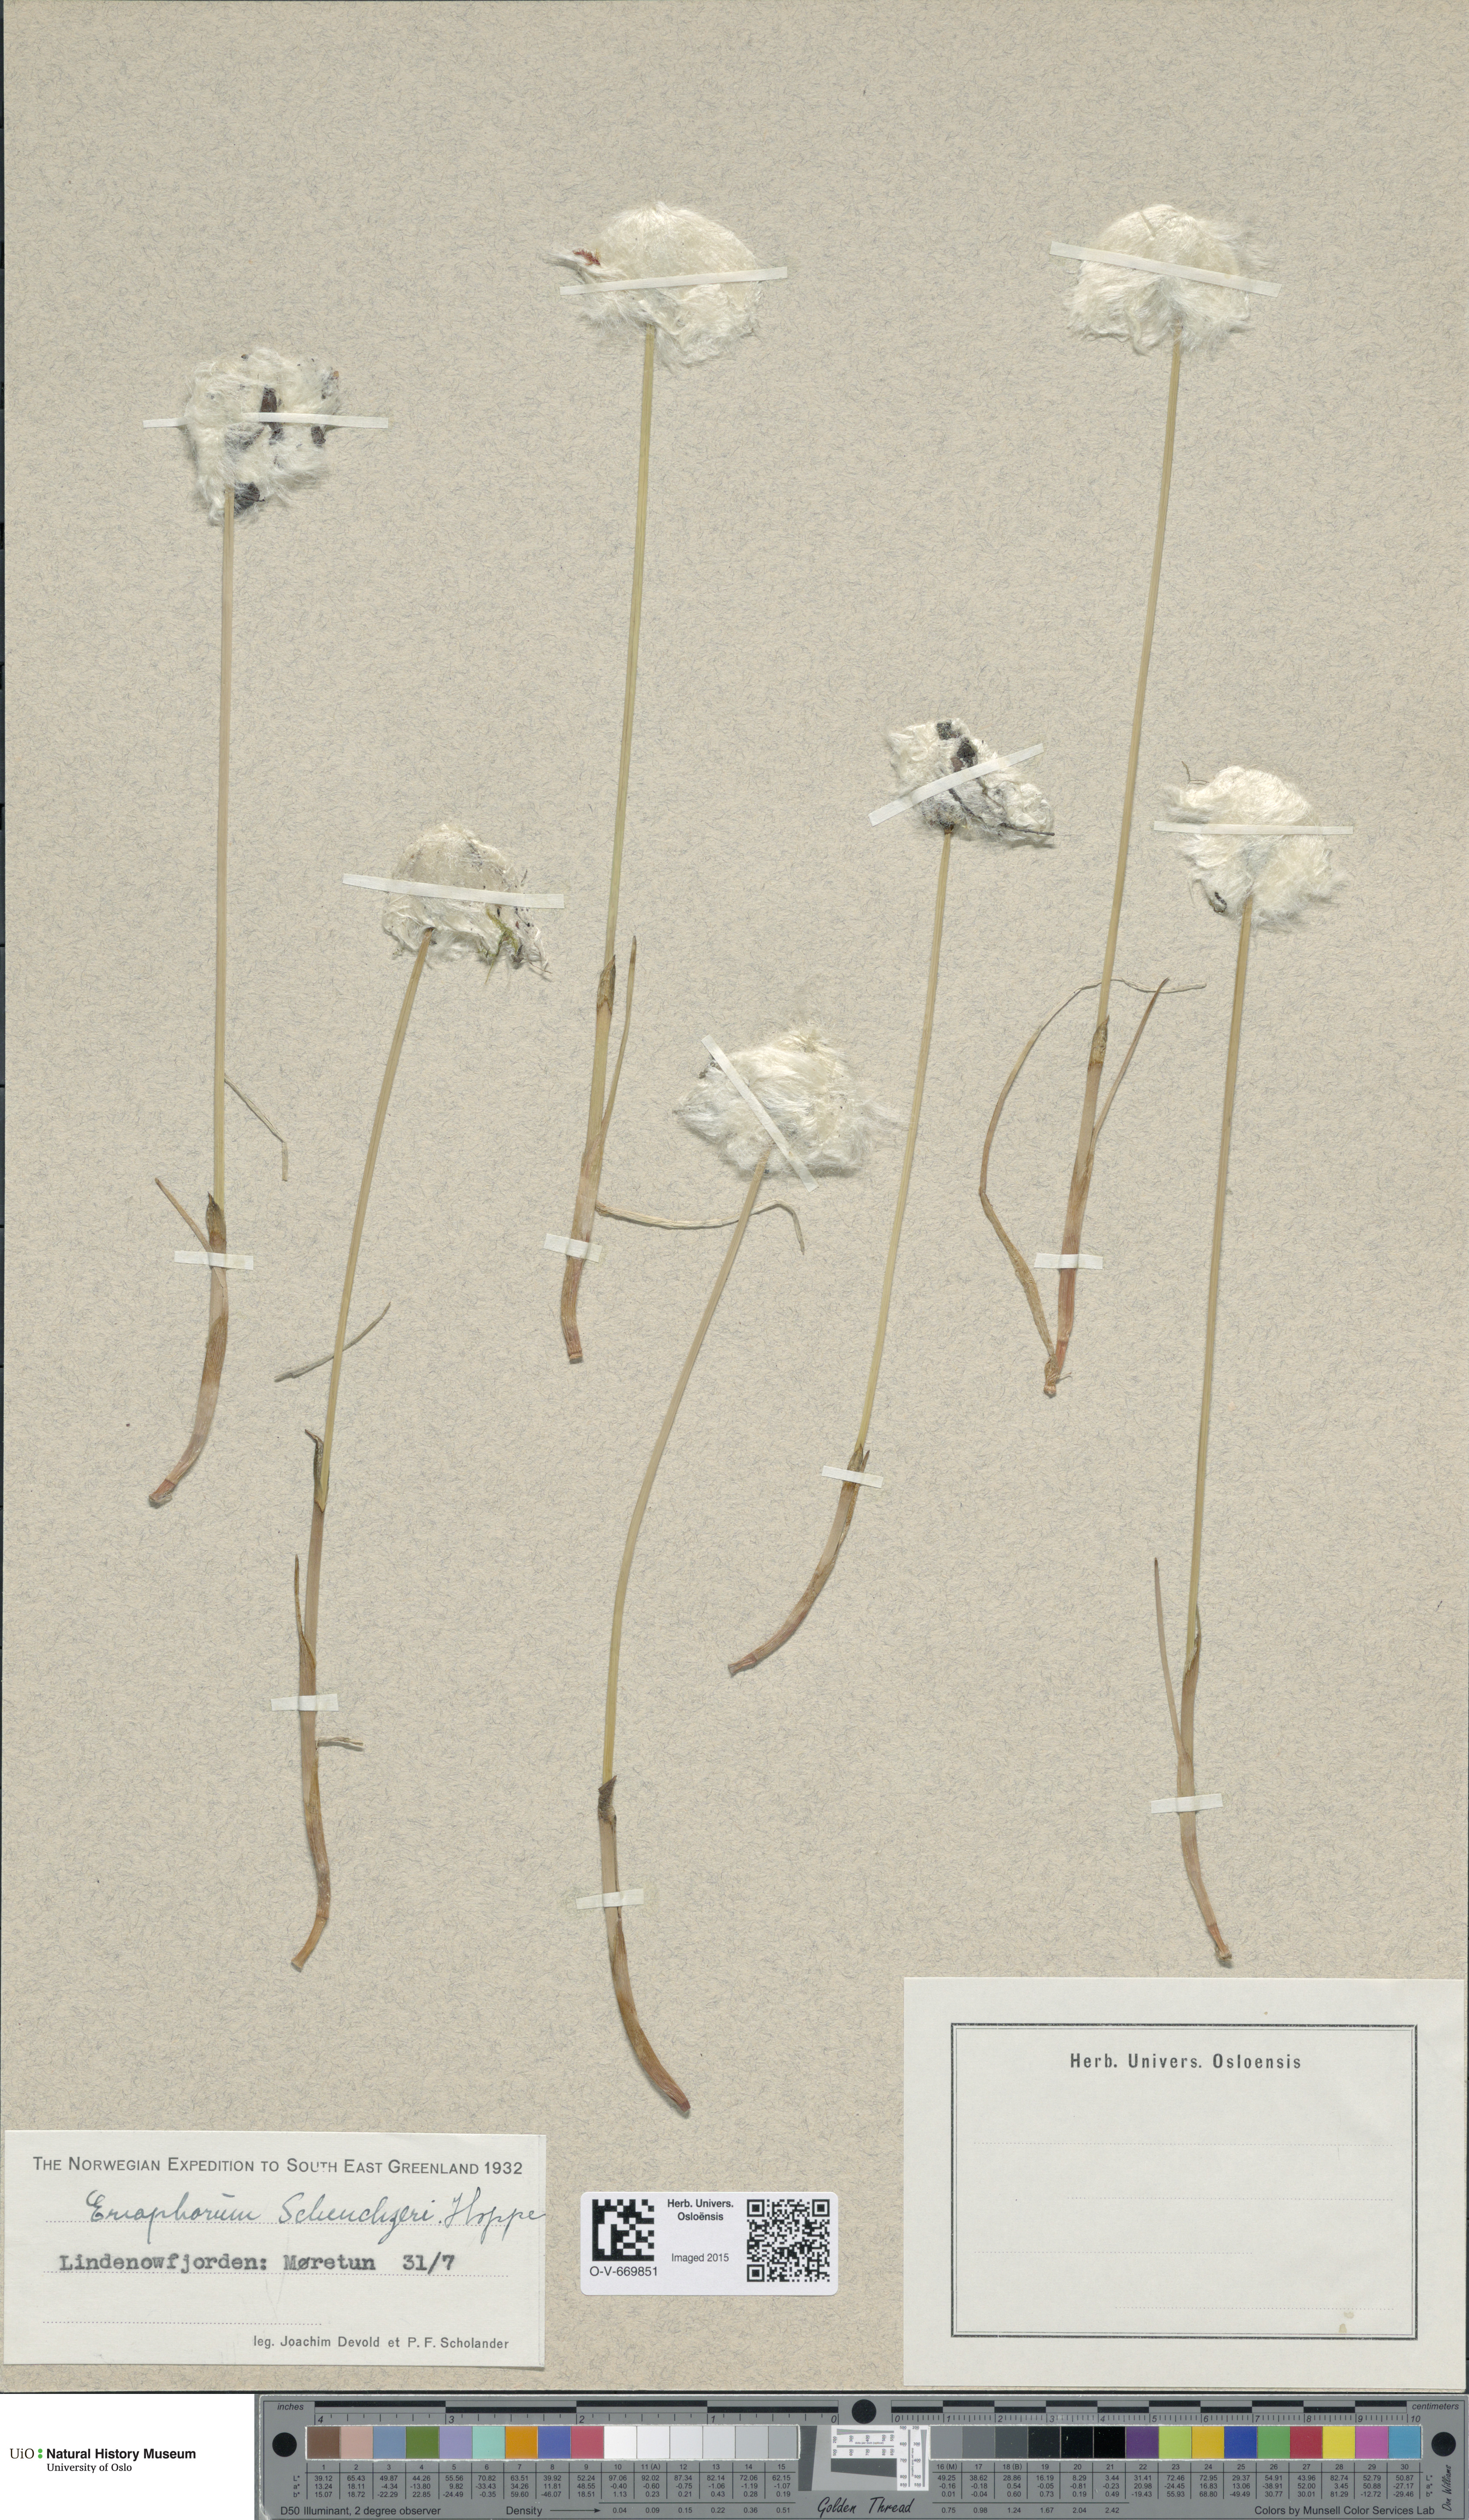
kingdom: Plantae
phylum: Tracheophyta
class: Liliopsida
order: Poales
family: Cyperaceae
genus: Eriophorum
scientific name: Eriophorum scheuchzeri
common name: Scheuchzer's cottongrass
